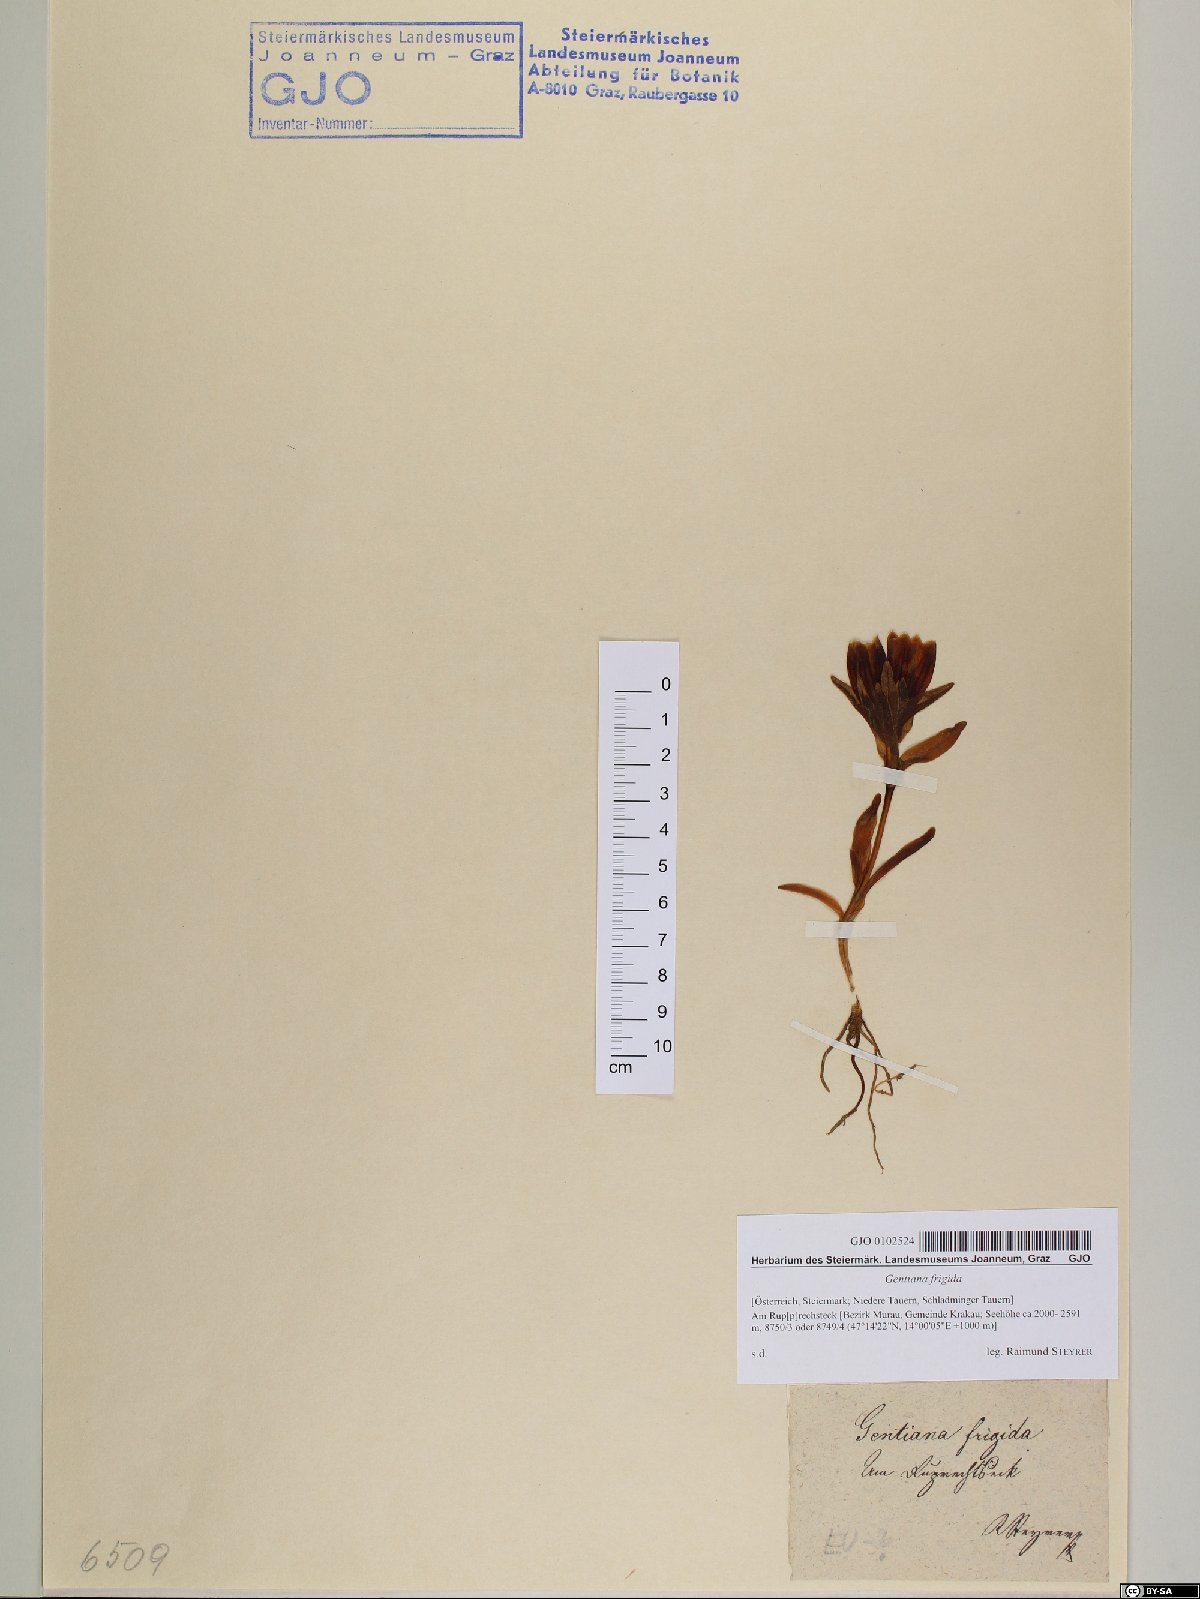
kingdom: Plantae
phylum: Tracheophyta
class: Magnoliopsida
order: Gentianales
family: Gentianaceae
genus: Gentiana
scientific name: Gentiana frigida
